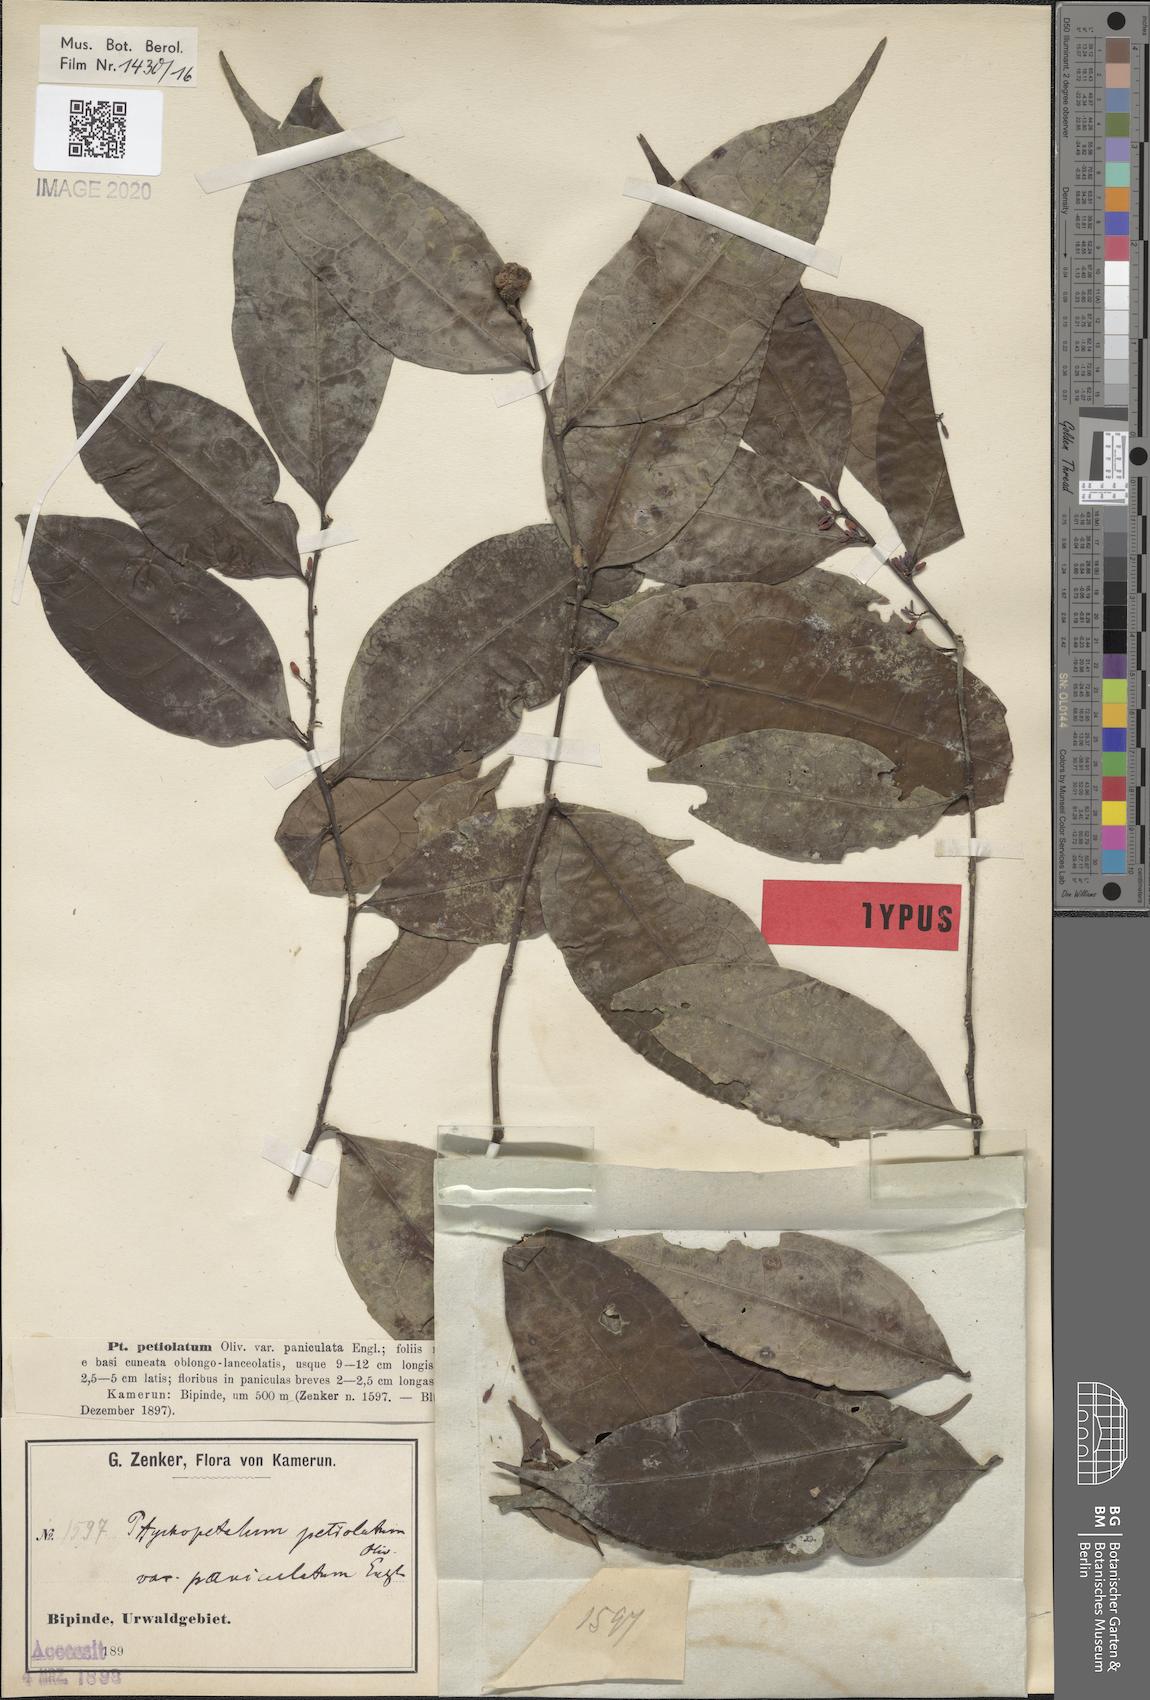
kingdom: Plantae
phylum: Tracheophyta
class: Magnoliopsida
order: Santalales
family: Olacaceae
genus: Ptychopetalum
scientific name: Ptychopetalum petiolatum
